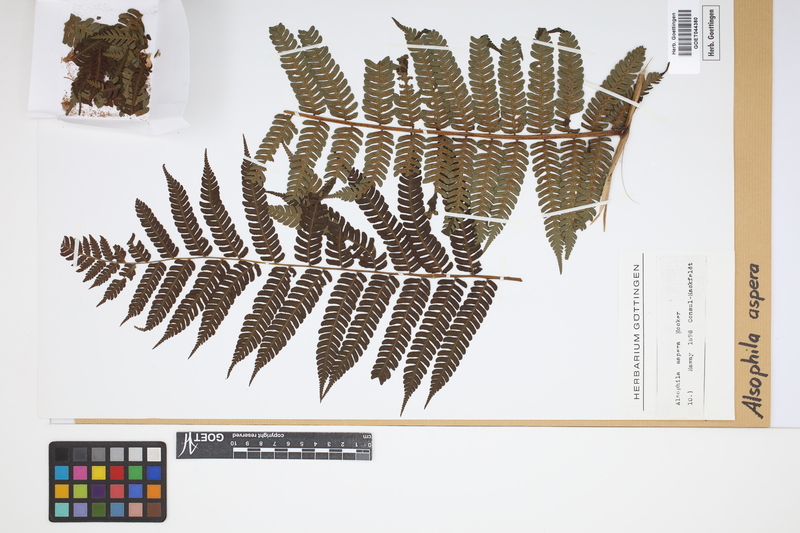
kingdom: Plantae
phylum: Tracheophyta
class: Polypodiopsida
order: Cyatheales
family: Cyatheaceae
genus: Cyathea
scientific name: Cyathea aspera
